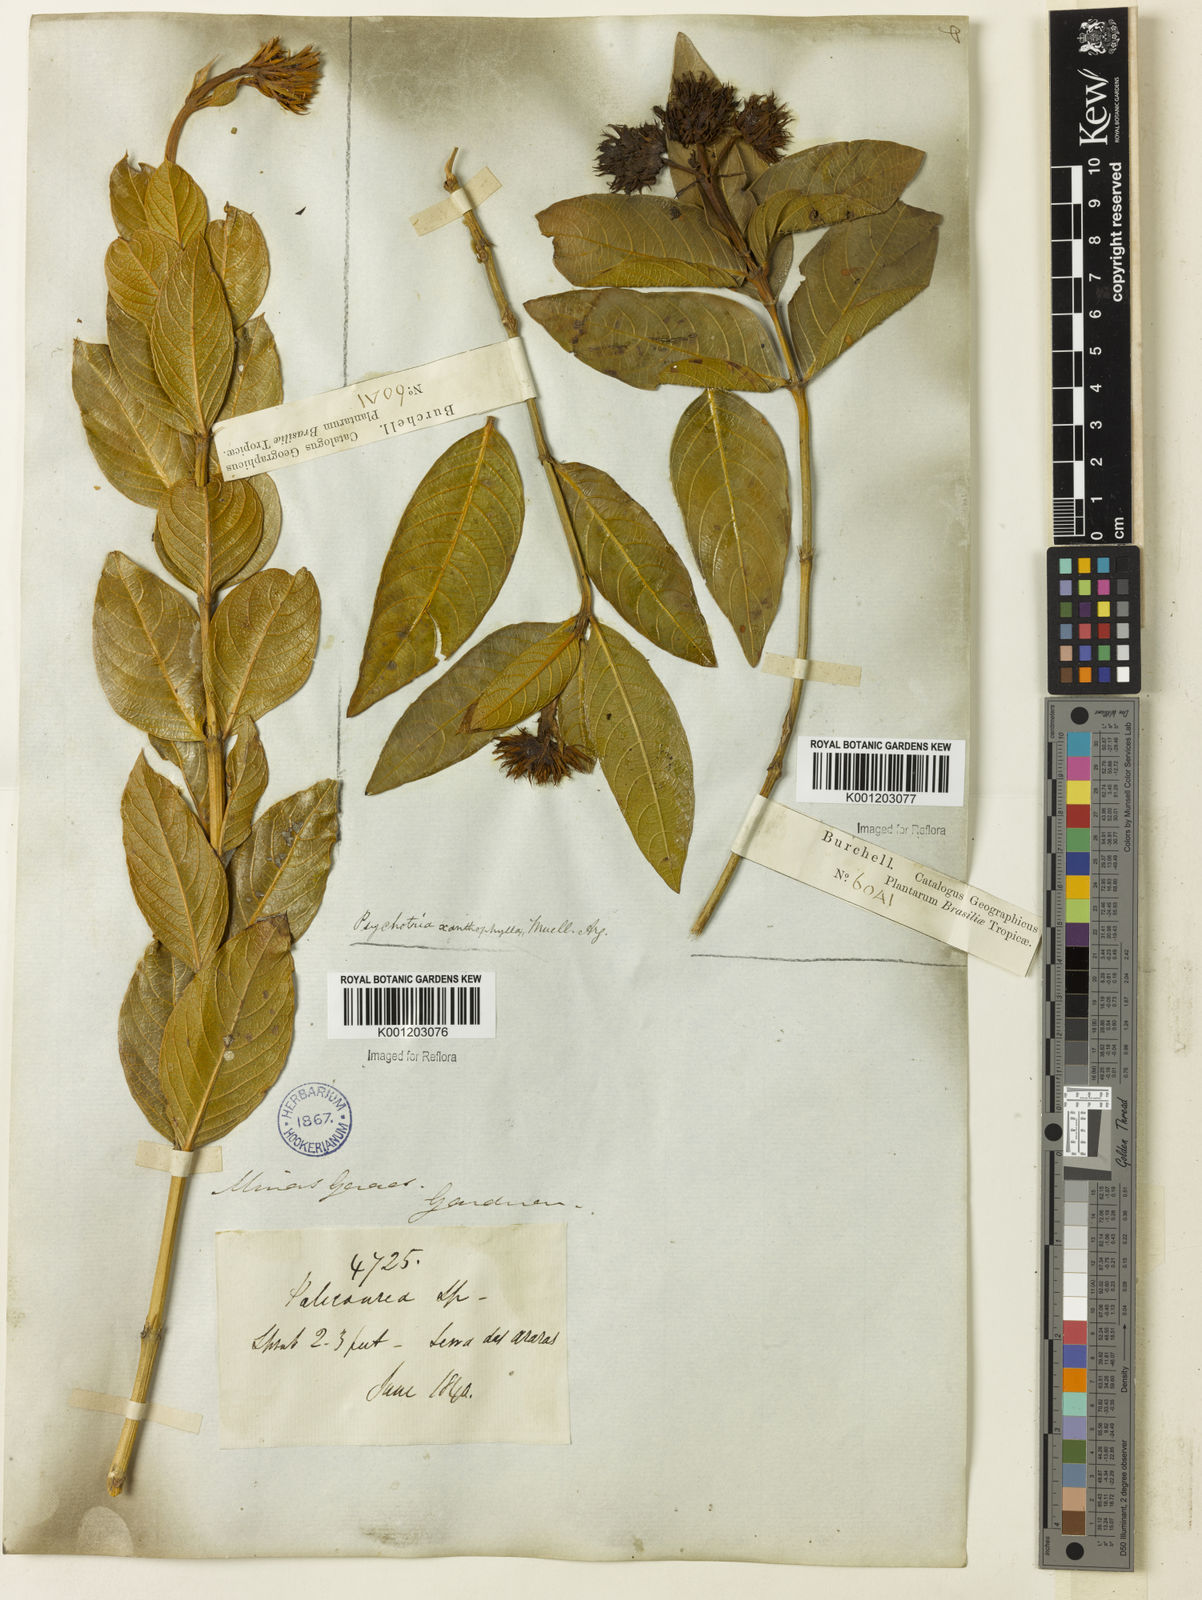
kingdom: Plantae
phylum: Tracheophyta
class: Magnoliopsida
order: Gentianales
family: Rubiaceae
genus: Palicourea
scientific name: Palicourea coriacea
